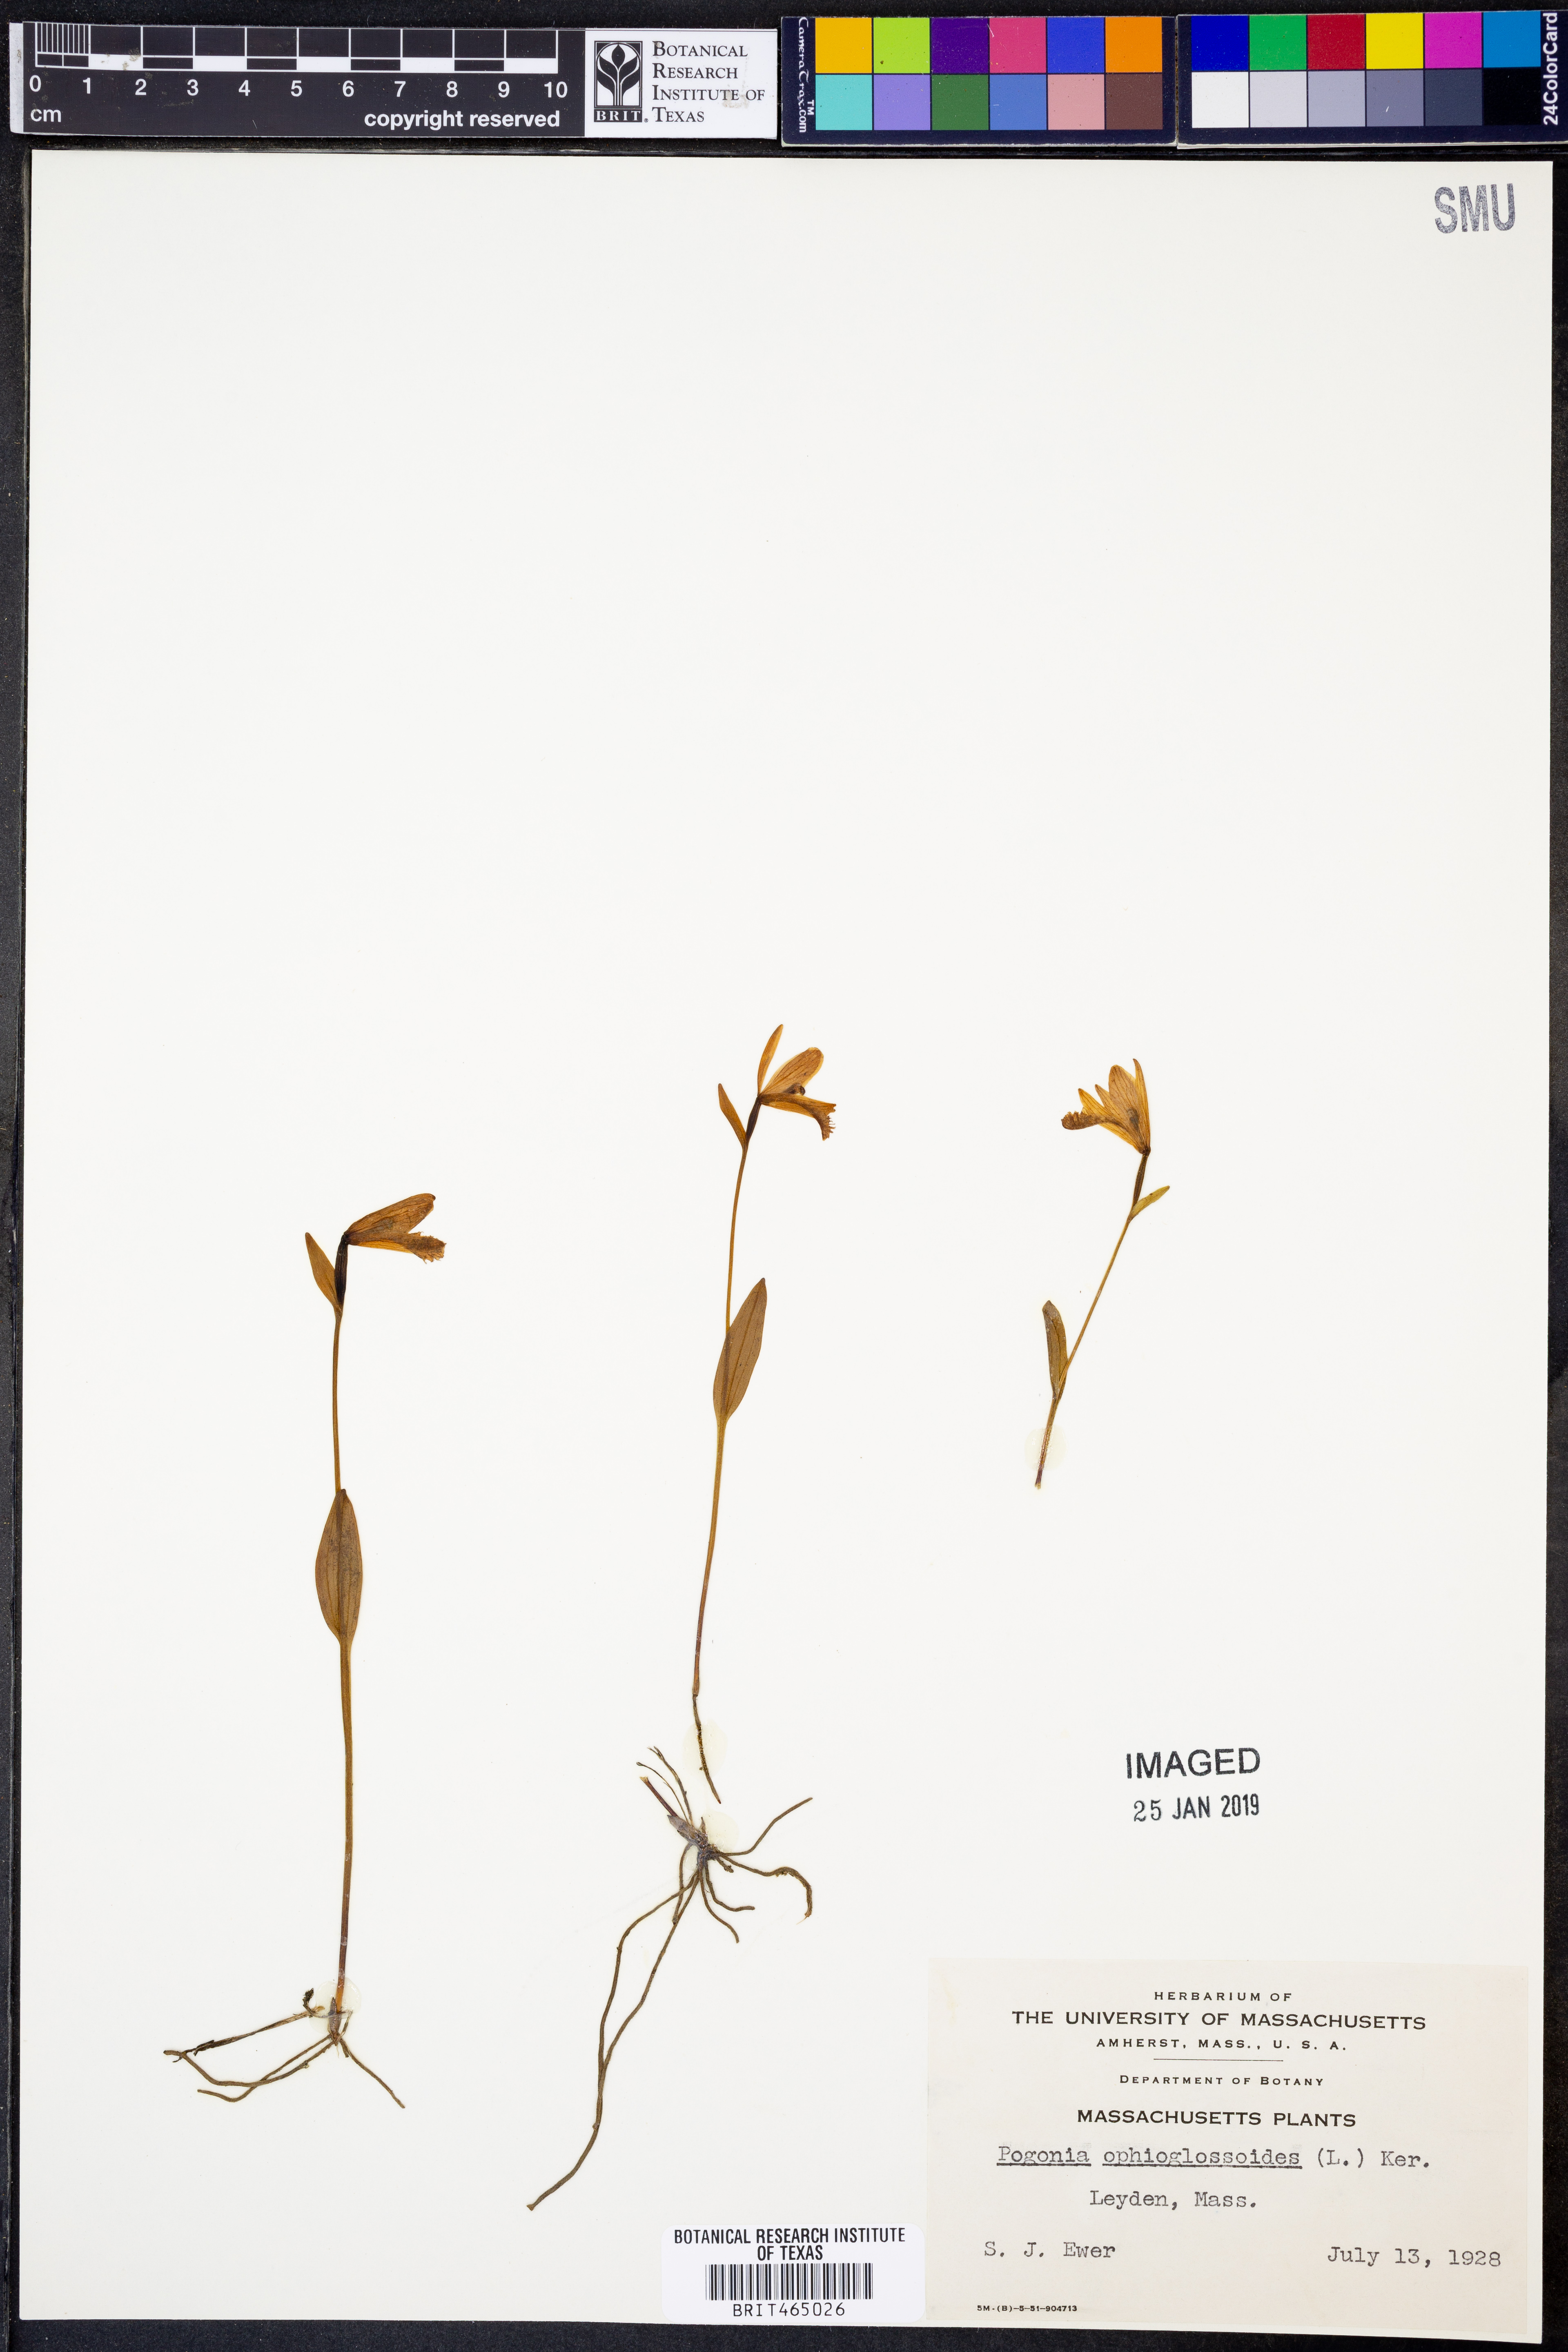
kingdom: Plantae
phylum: Tracheophyta
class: Liliopsida
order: Asparagales
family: Orchidaceae
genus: Pogonia
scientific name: Pogonia ophioglossoides
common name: Rose pogonia
